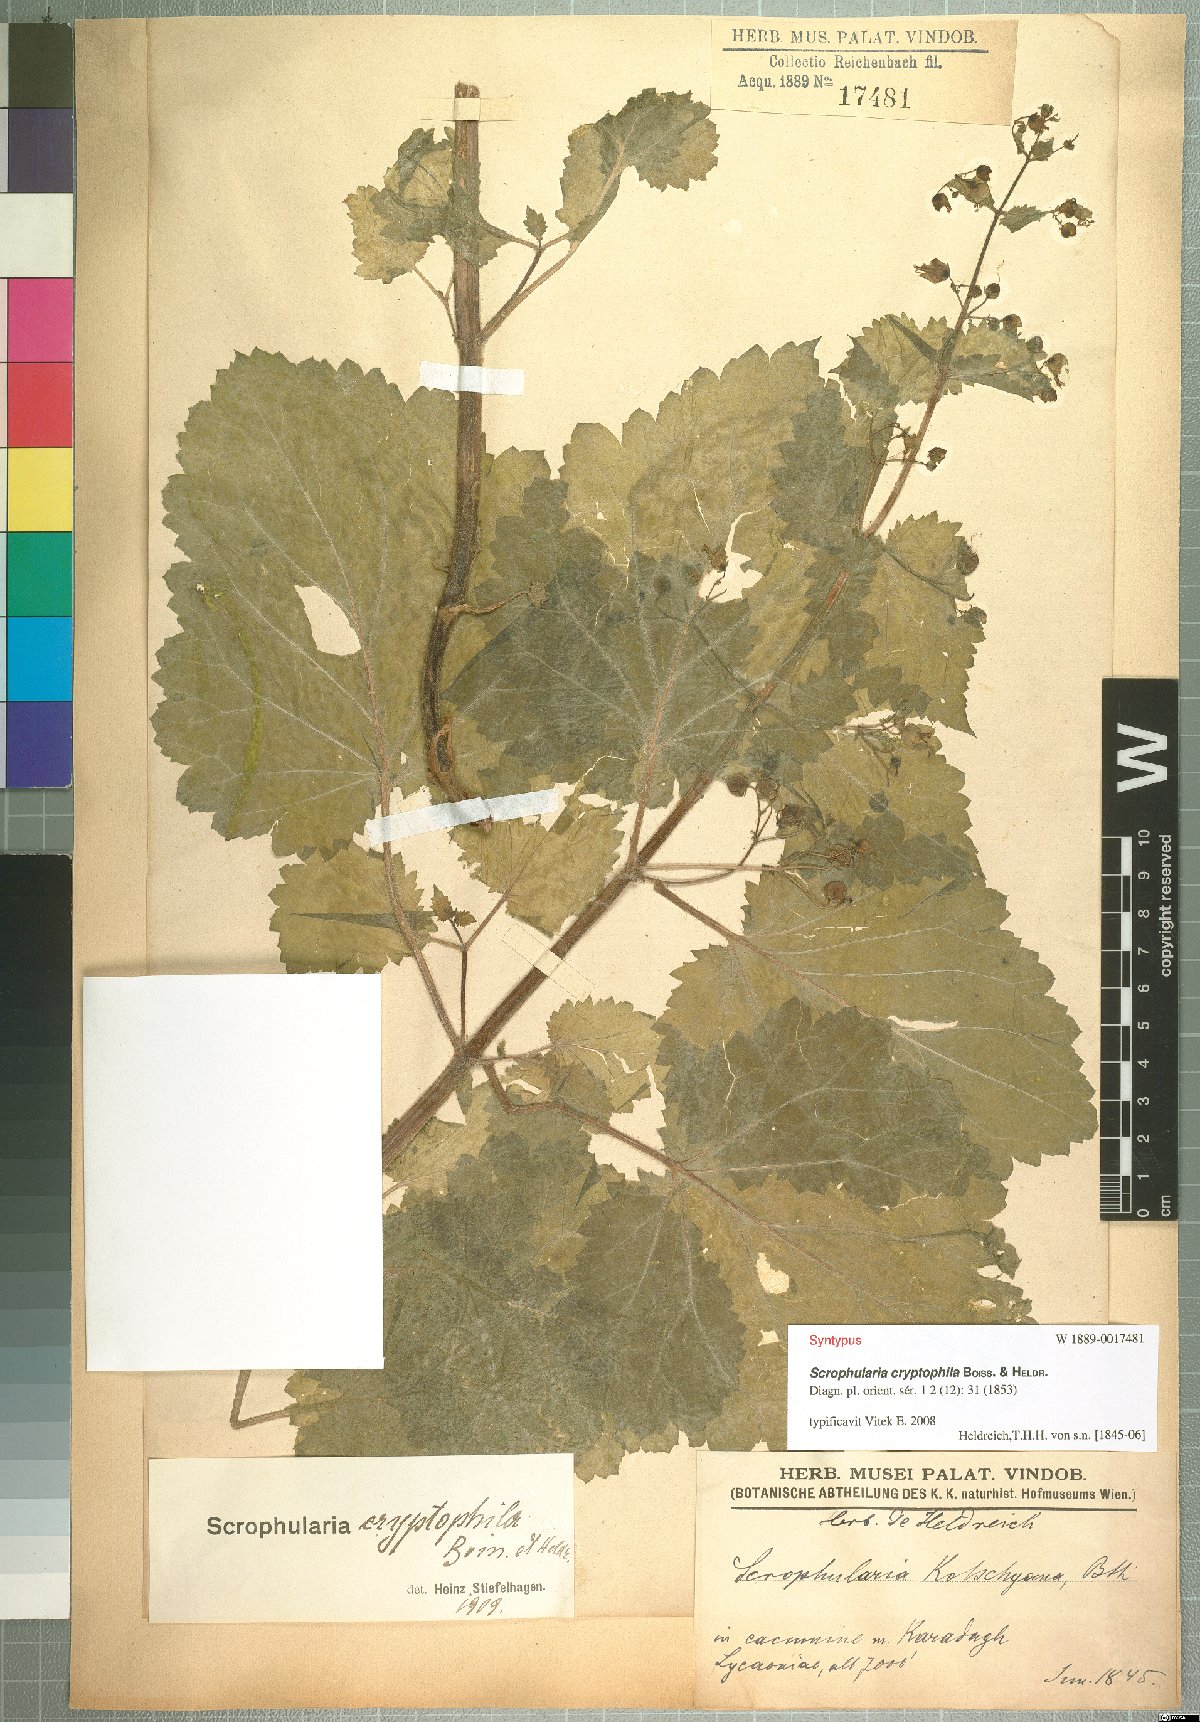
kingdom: Plantae
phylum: Tracheophyta
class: Magnoliopsida
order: Lamiales
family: Scrophulariaceae
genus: Scrophularia
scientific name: Scrophularia cryptophila
